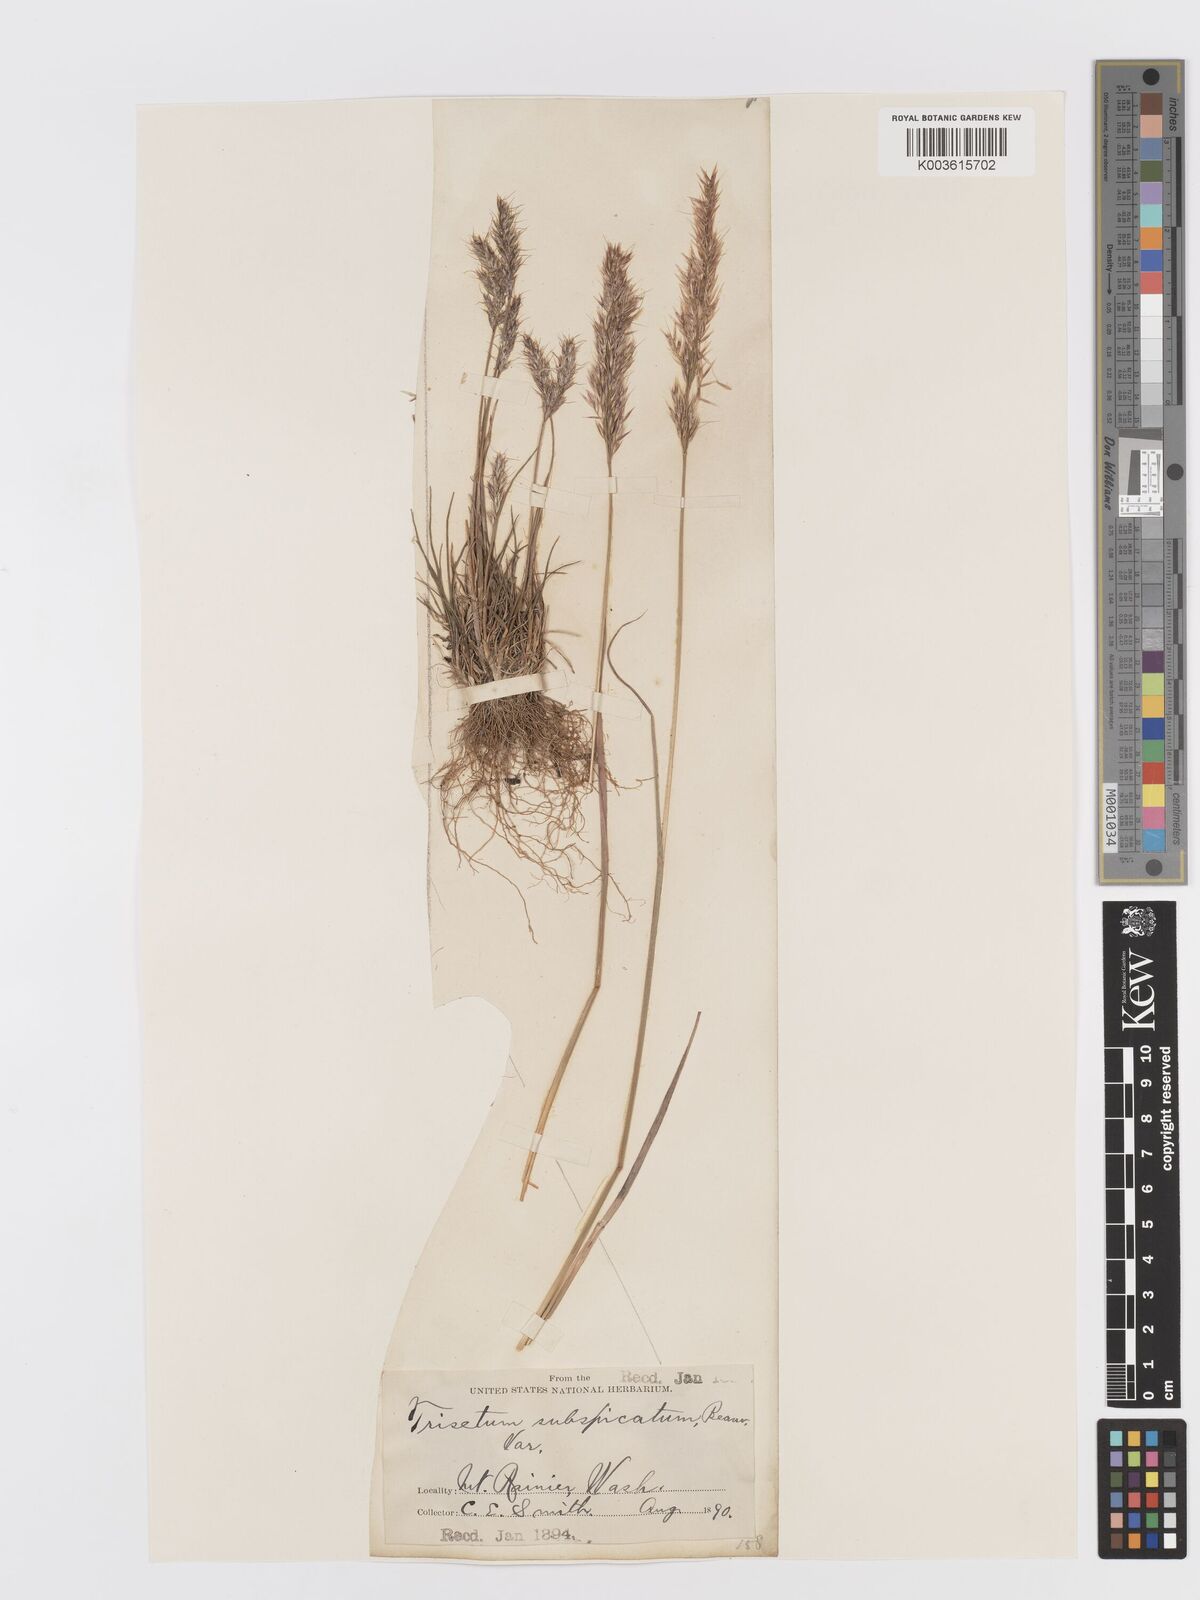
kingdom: Plantae
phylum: Tracheophyta
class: Liliopsida
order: Poales
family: Poaceae
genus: Koeleria
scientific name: Koeleria spicata
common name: Mountain trisetum
